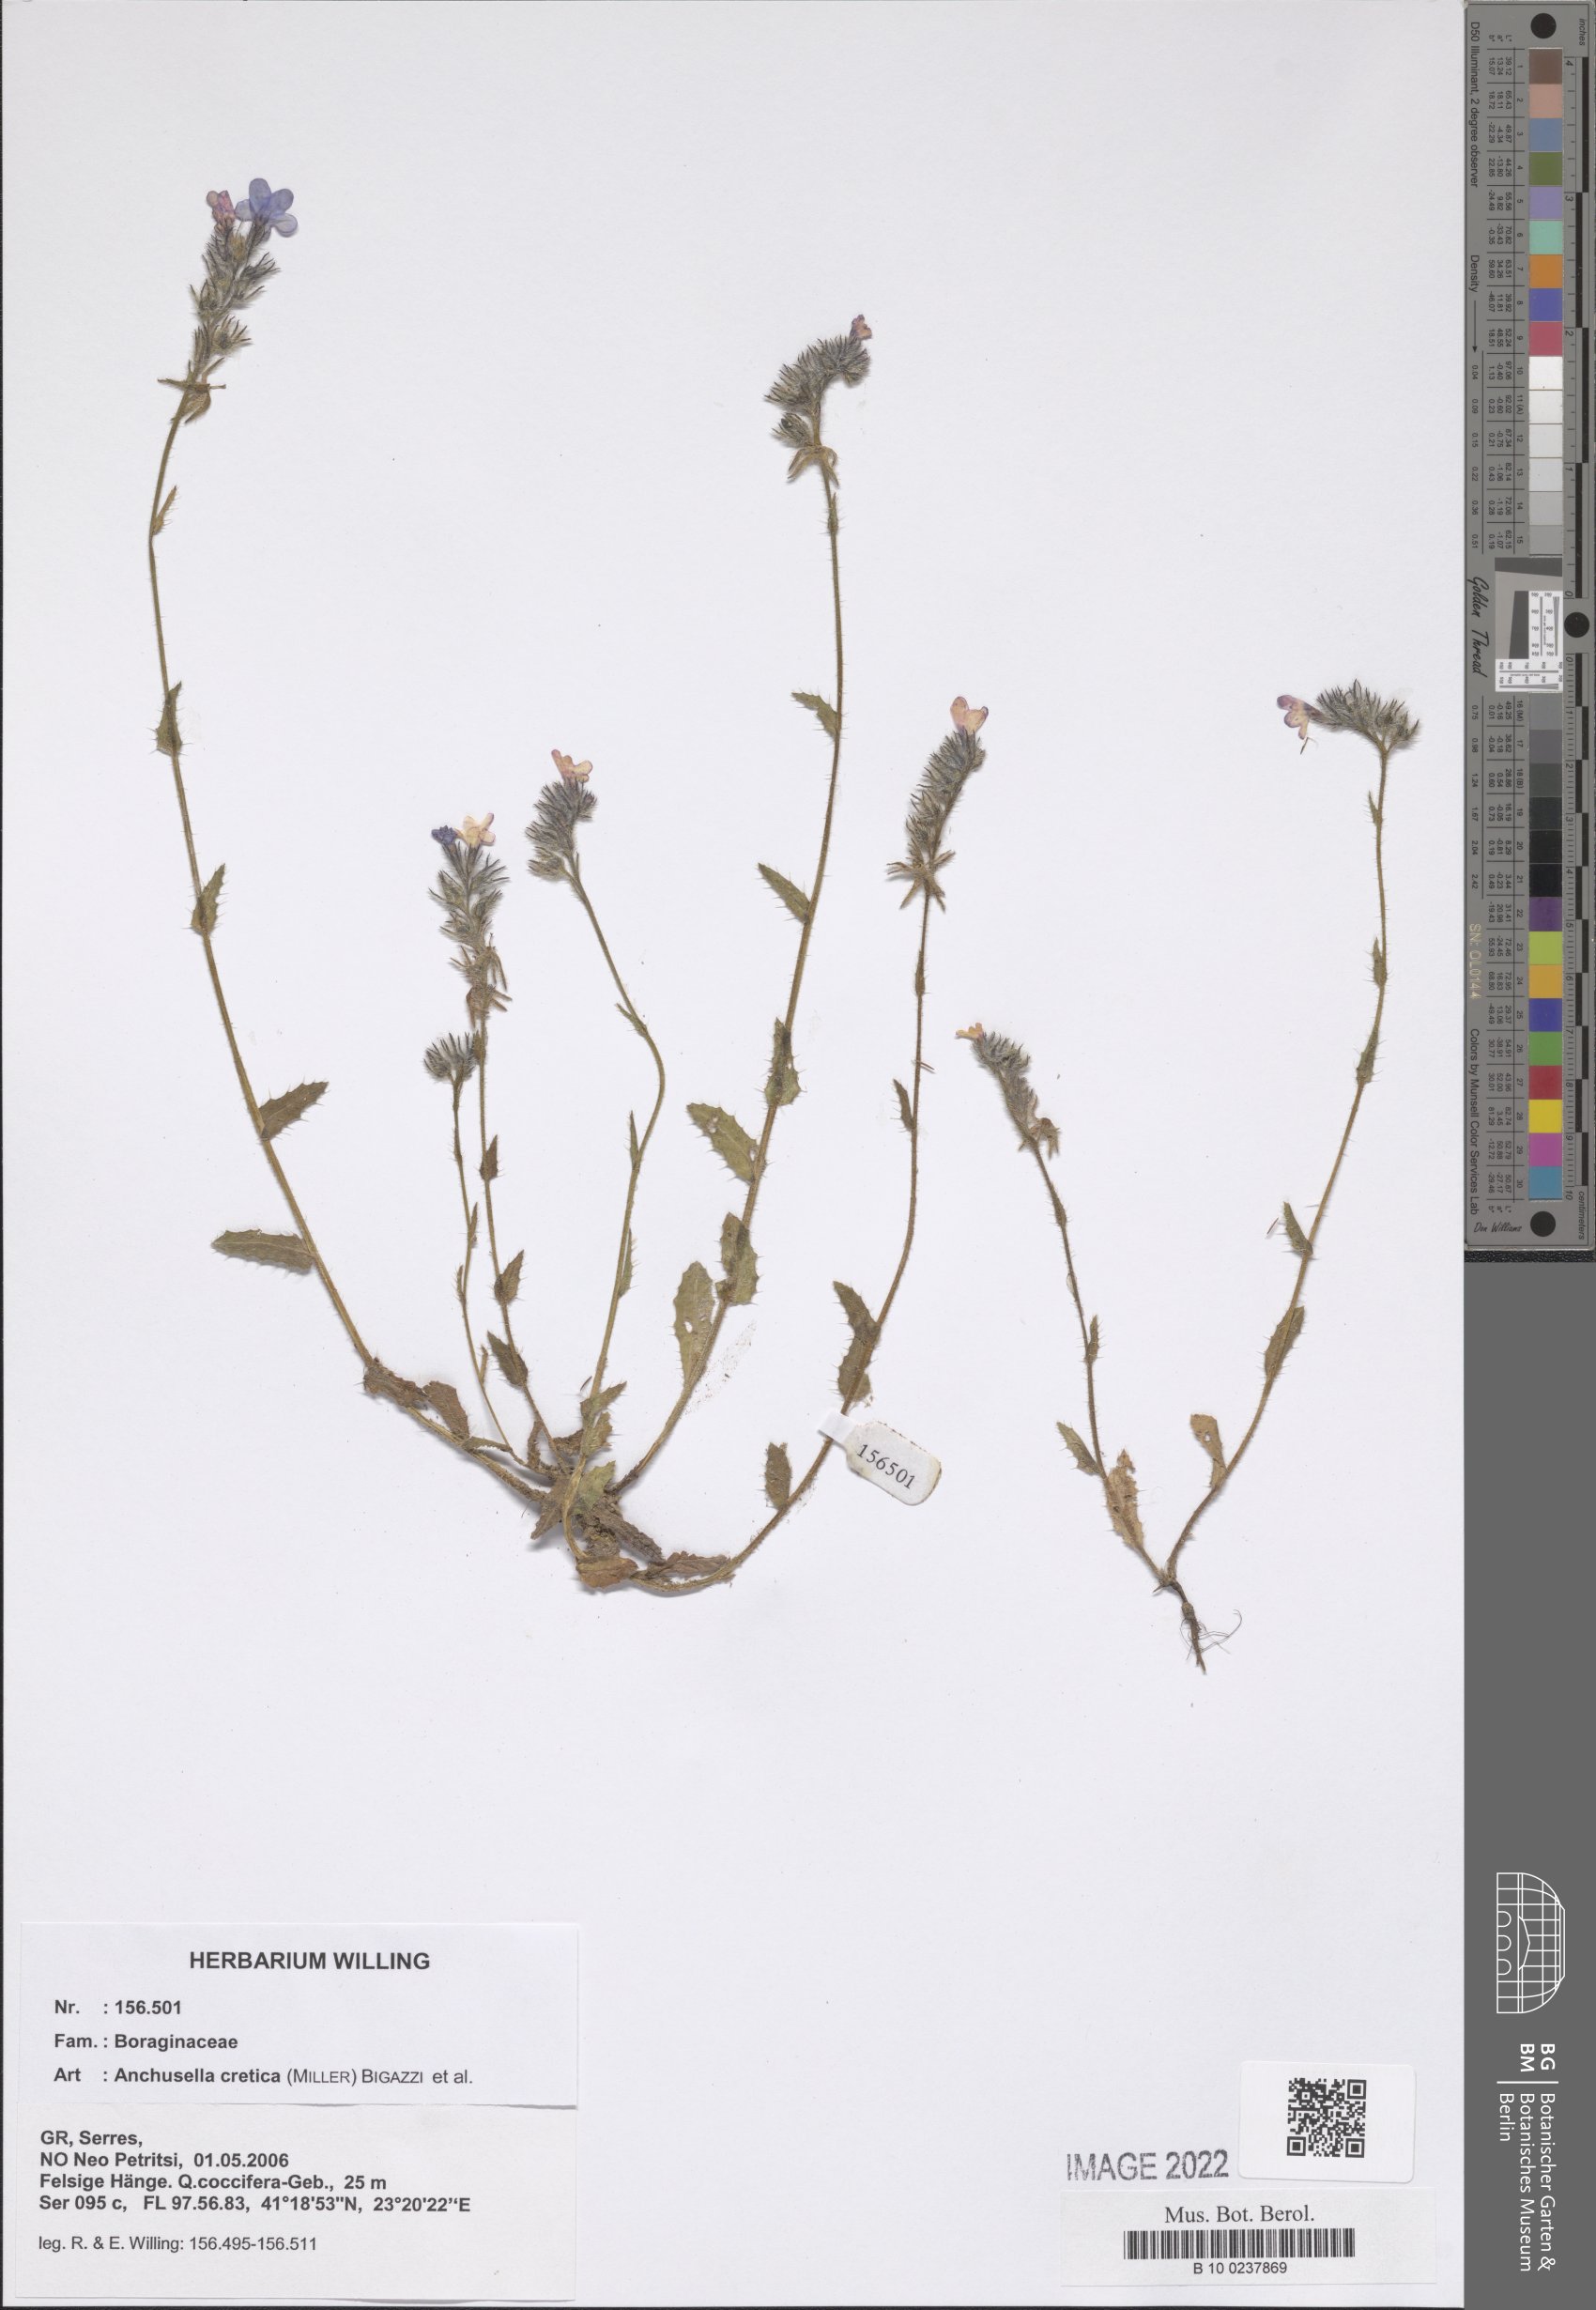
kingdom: Plantae
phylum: Tracheophyta
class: Magnoliopsida
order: Boraginales
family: Boraginaceae
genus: Lycopsis
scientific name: Lycopsis arvensis
